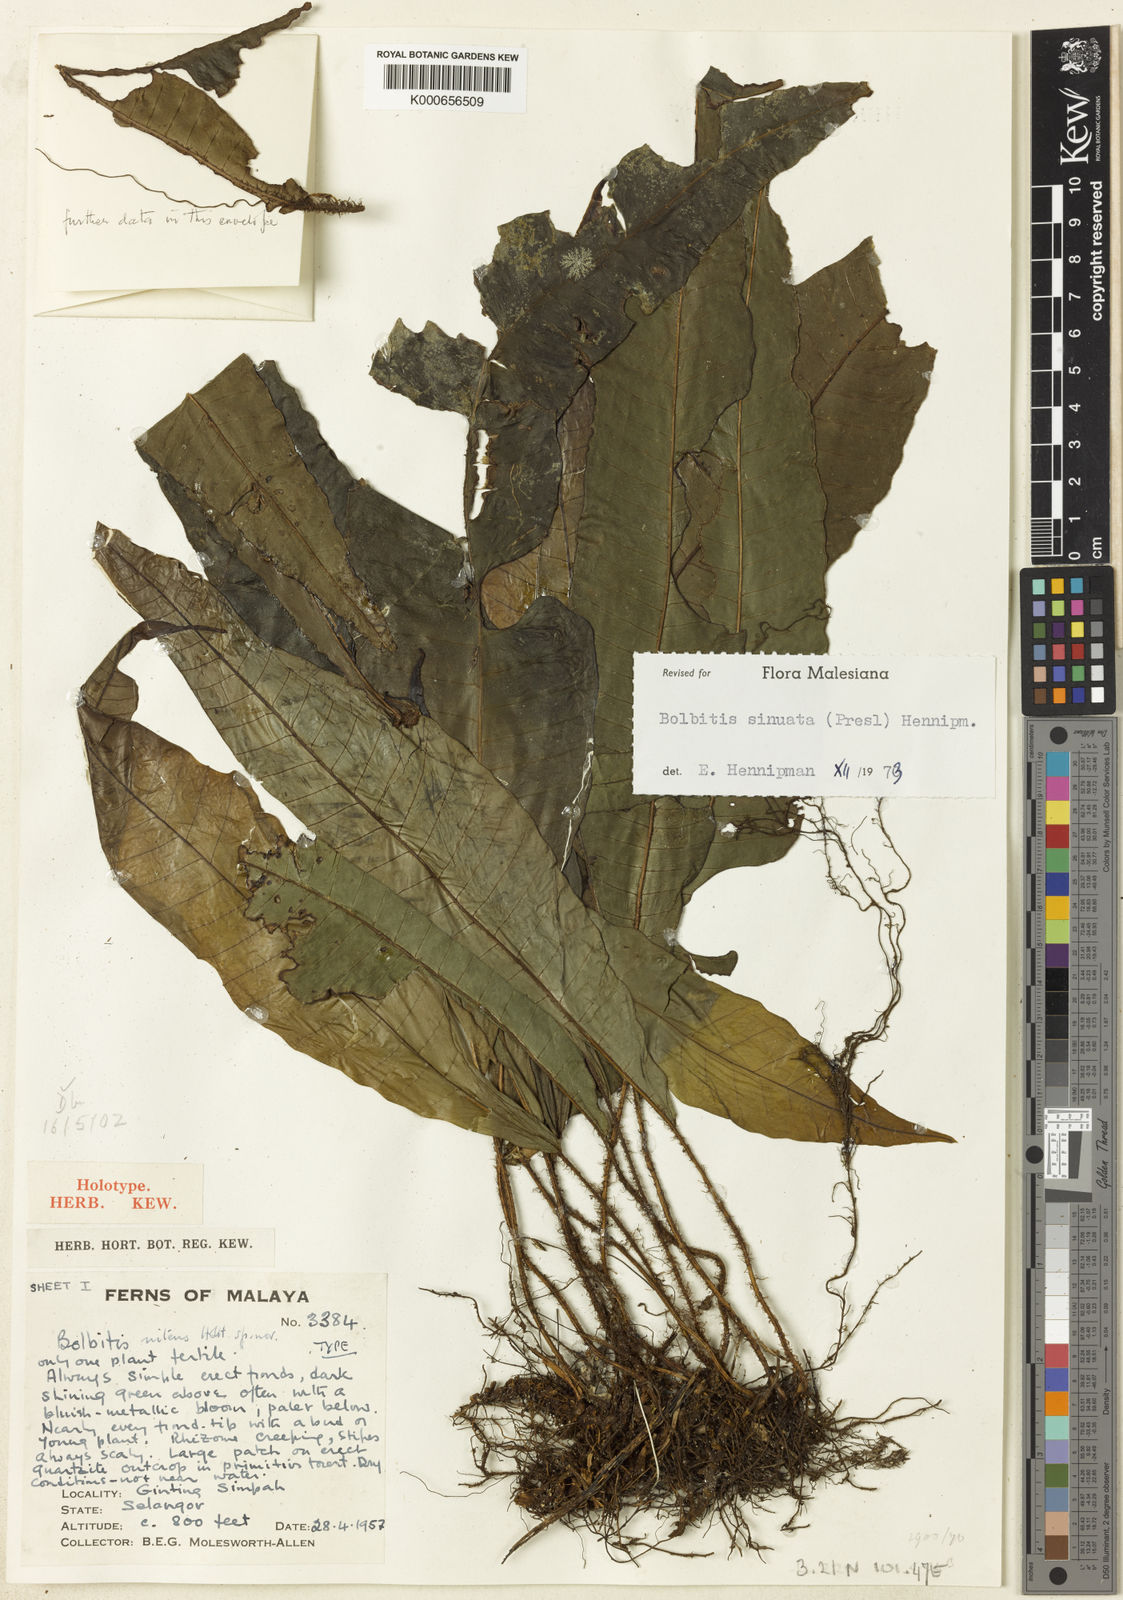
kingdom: Plantae
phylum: Tracheophyta
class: Polypodiopsida
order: Polypodiales
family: Dryopteridaceae
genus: Bolbitis
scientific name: Bolbitis sinuata
